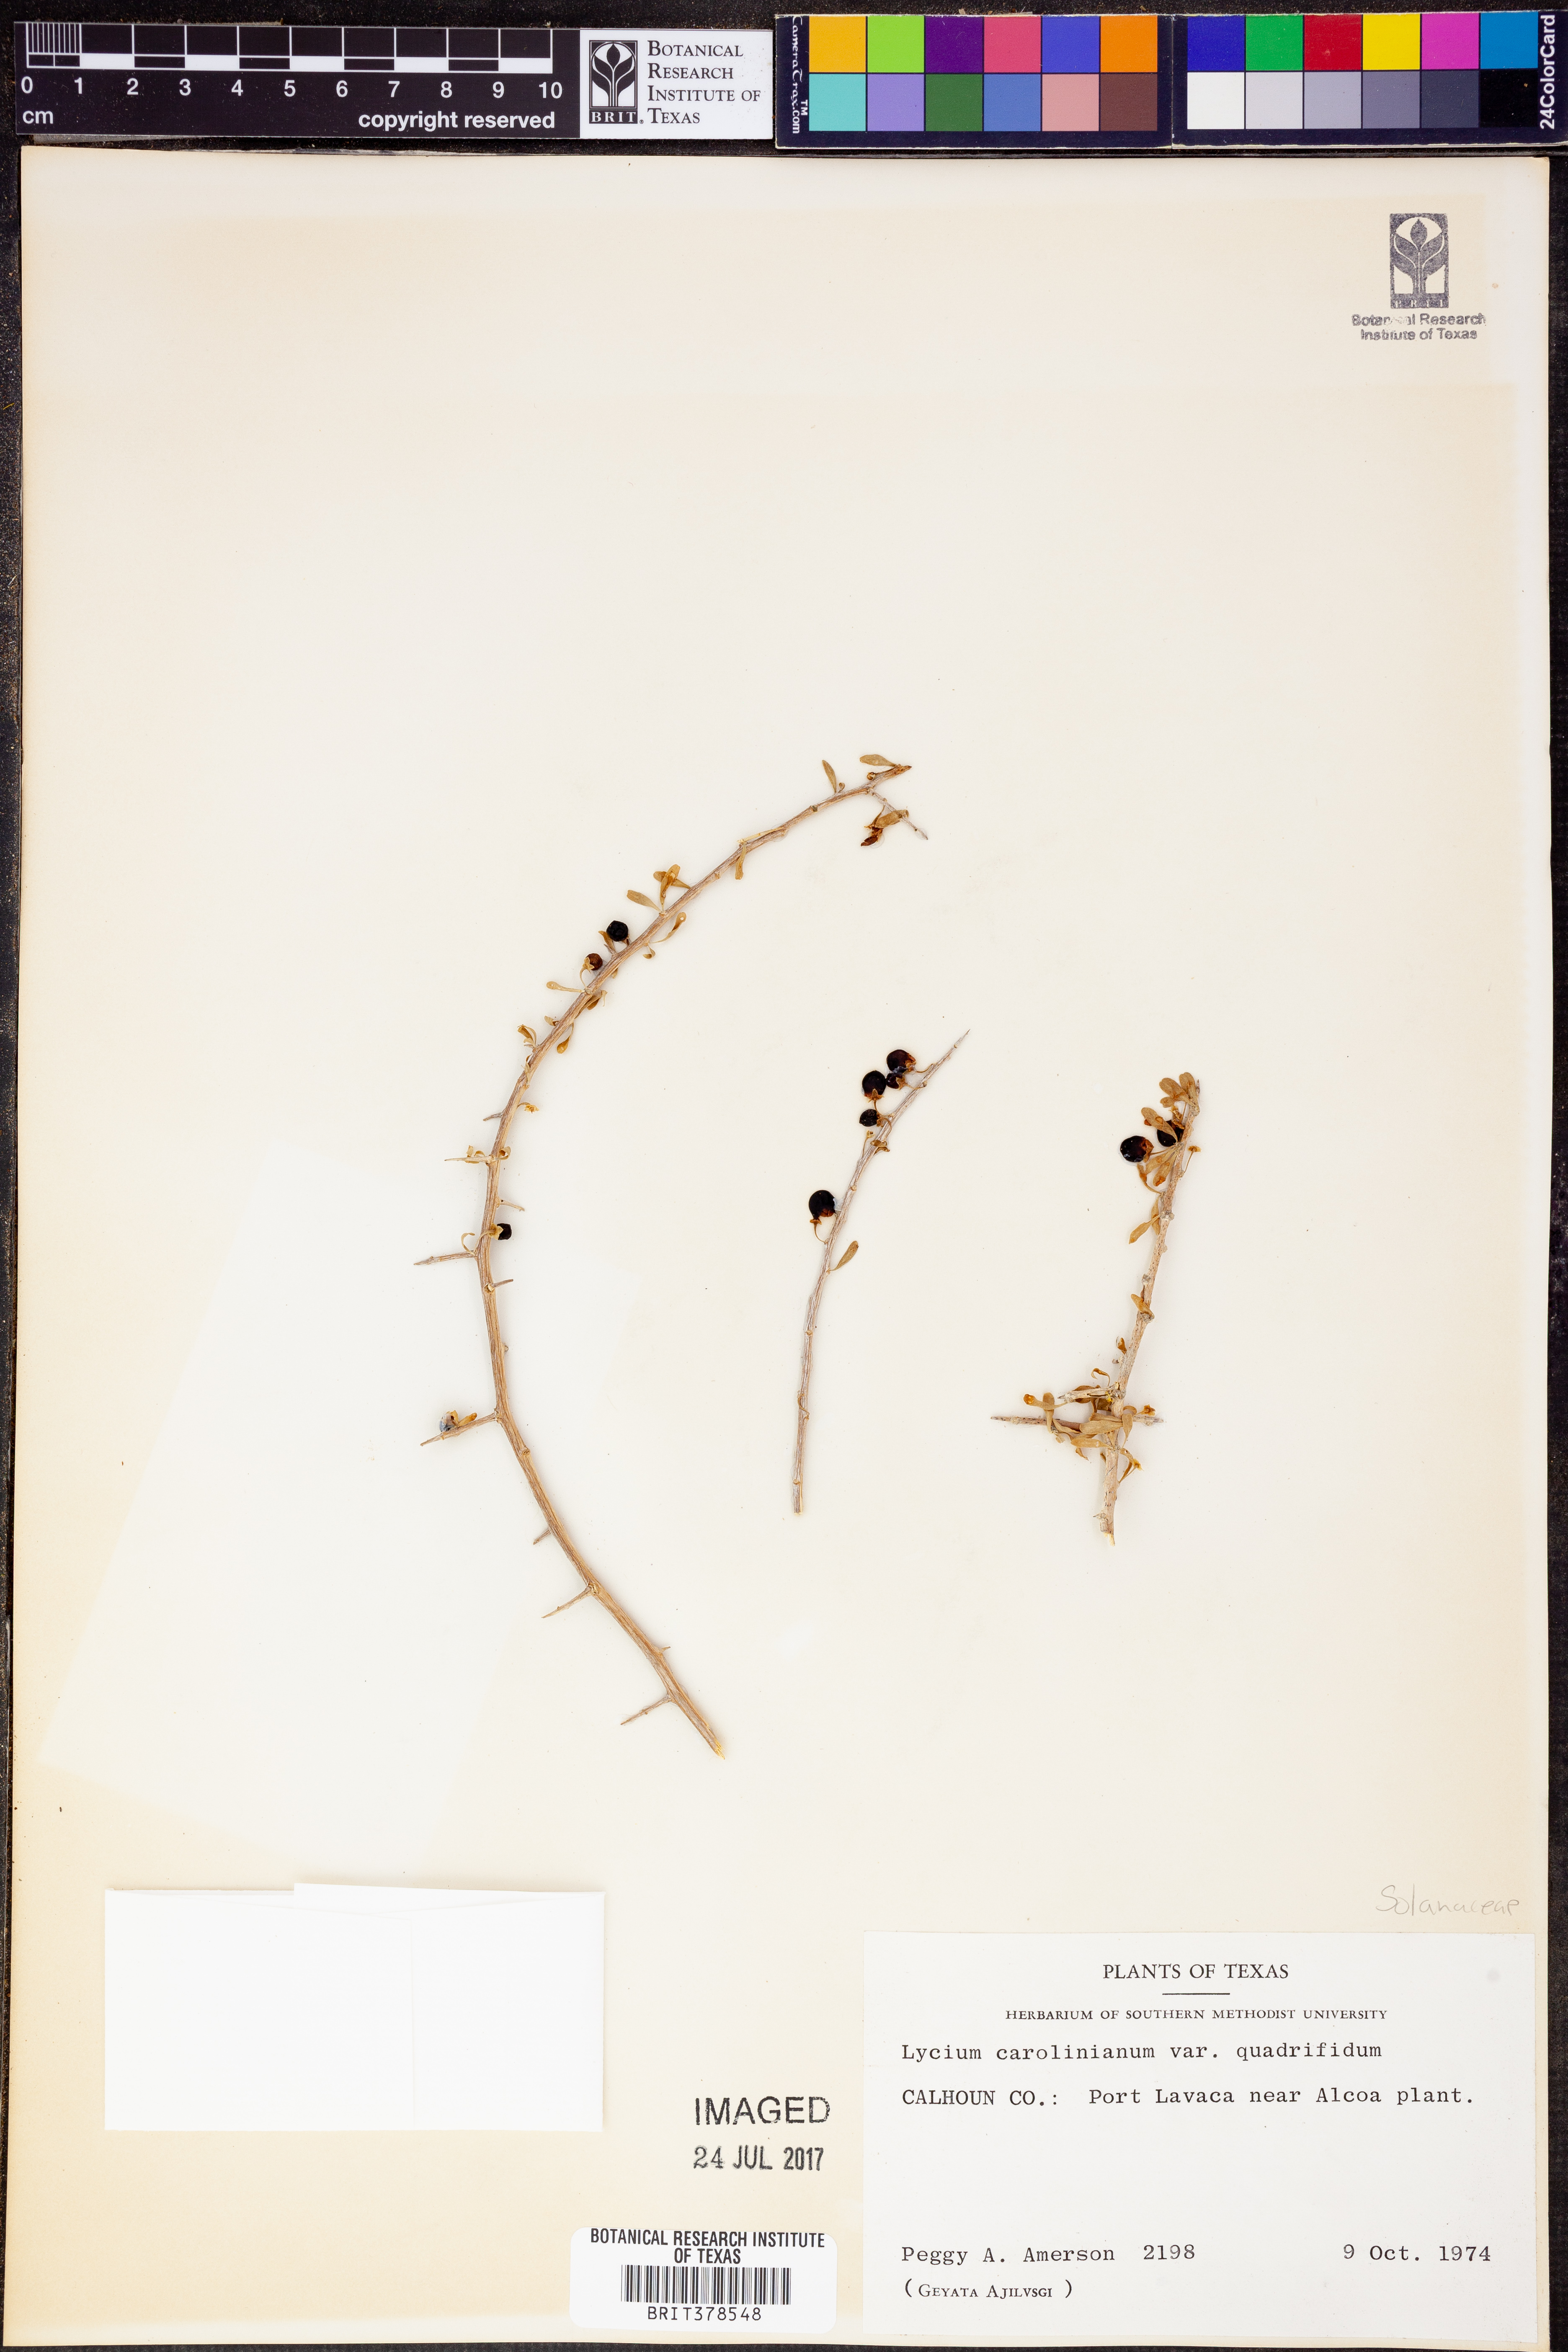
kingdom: Plantae
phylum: Tracheophyta
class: Magnoliopsida
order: Solanales
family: Solanaceae
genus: Lycium
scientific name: Lycium carolinianum
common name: Christmasberry
